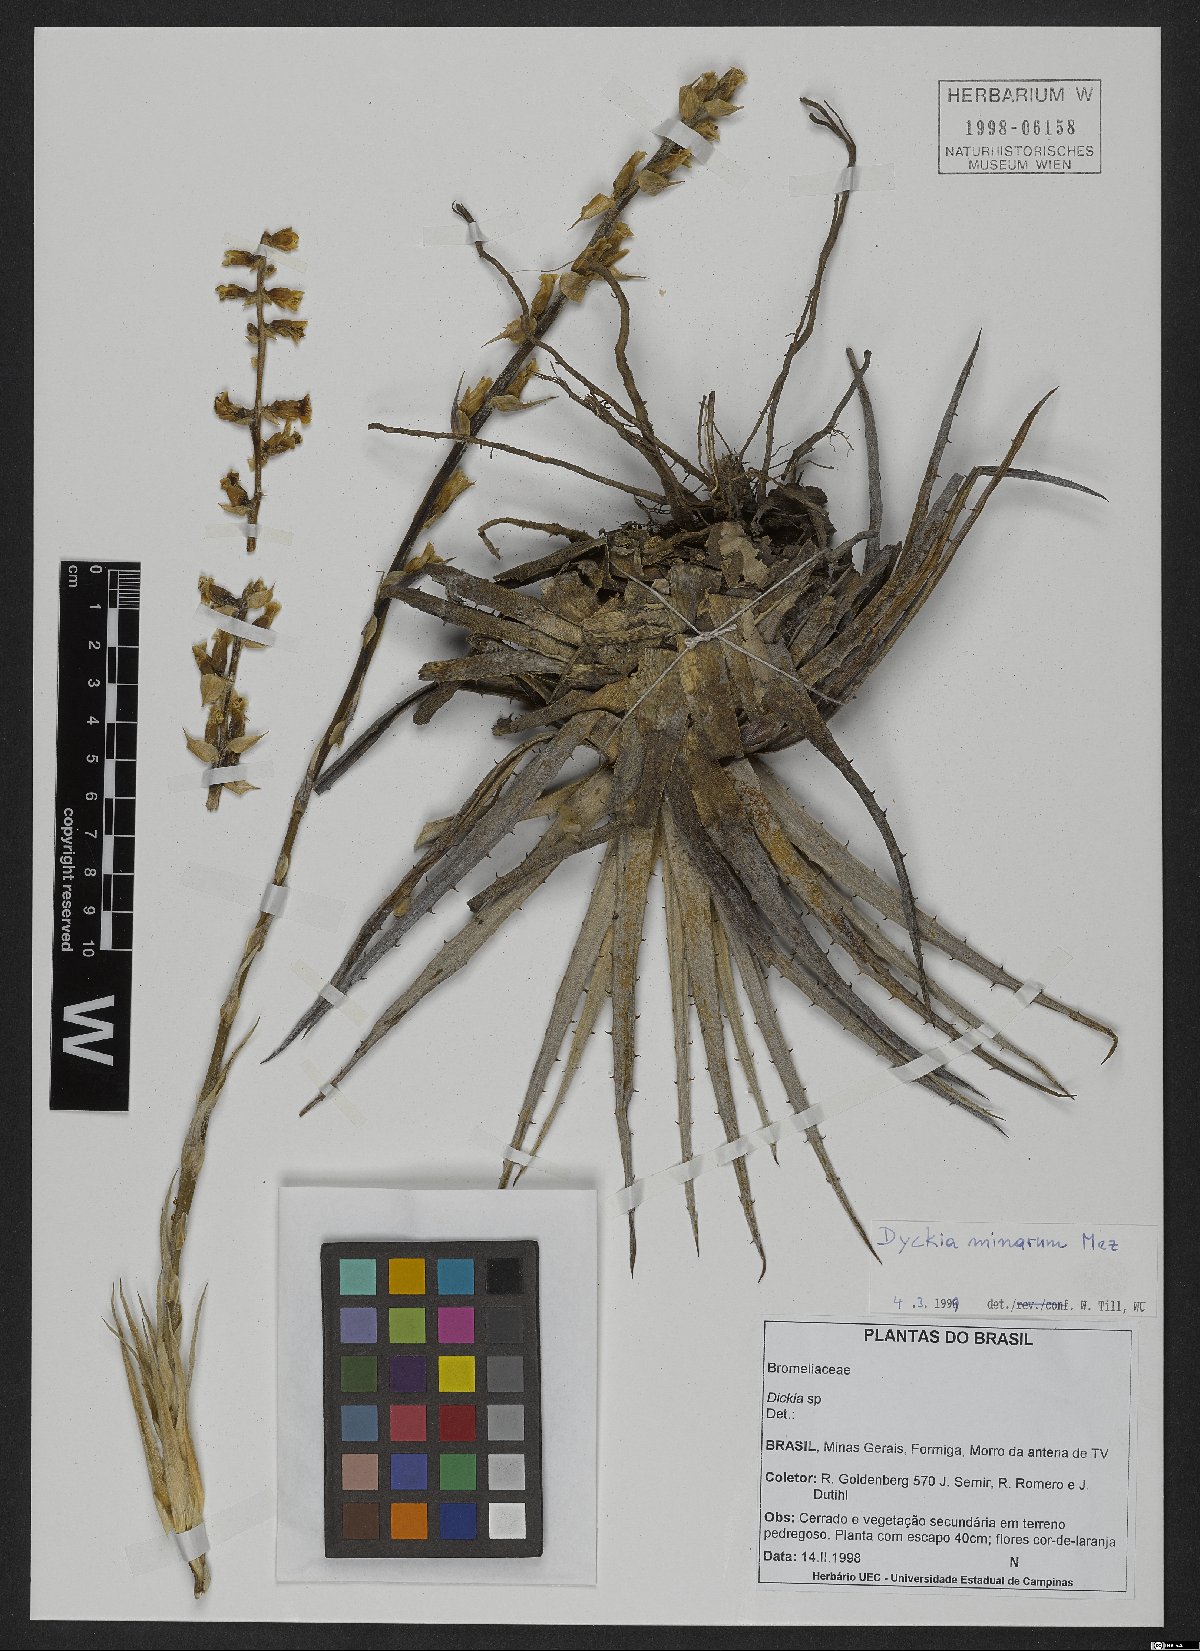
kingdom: Plantae
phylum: Tracheophyta
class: Liliopsida
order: Poales
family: Bromeliaceae
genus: Dyckia
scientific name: Dyckia minarum
